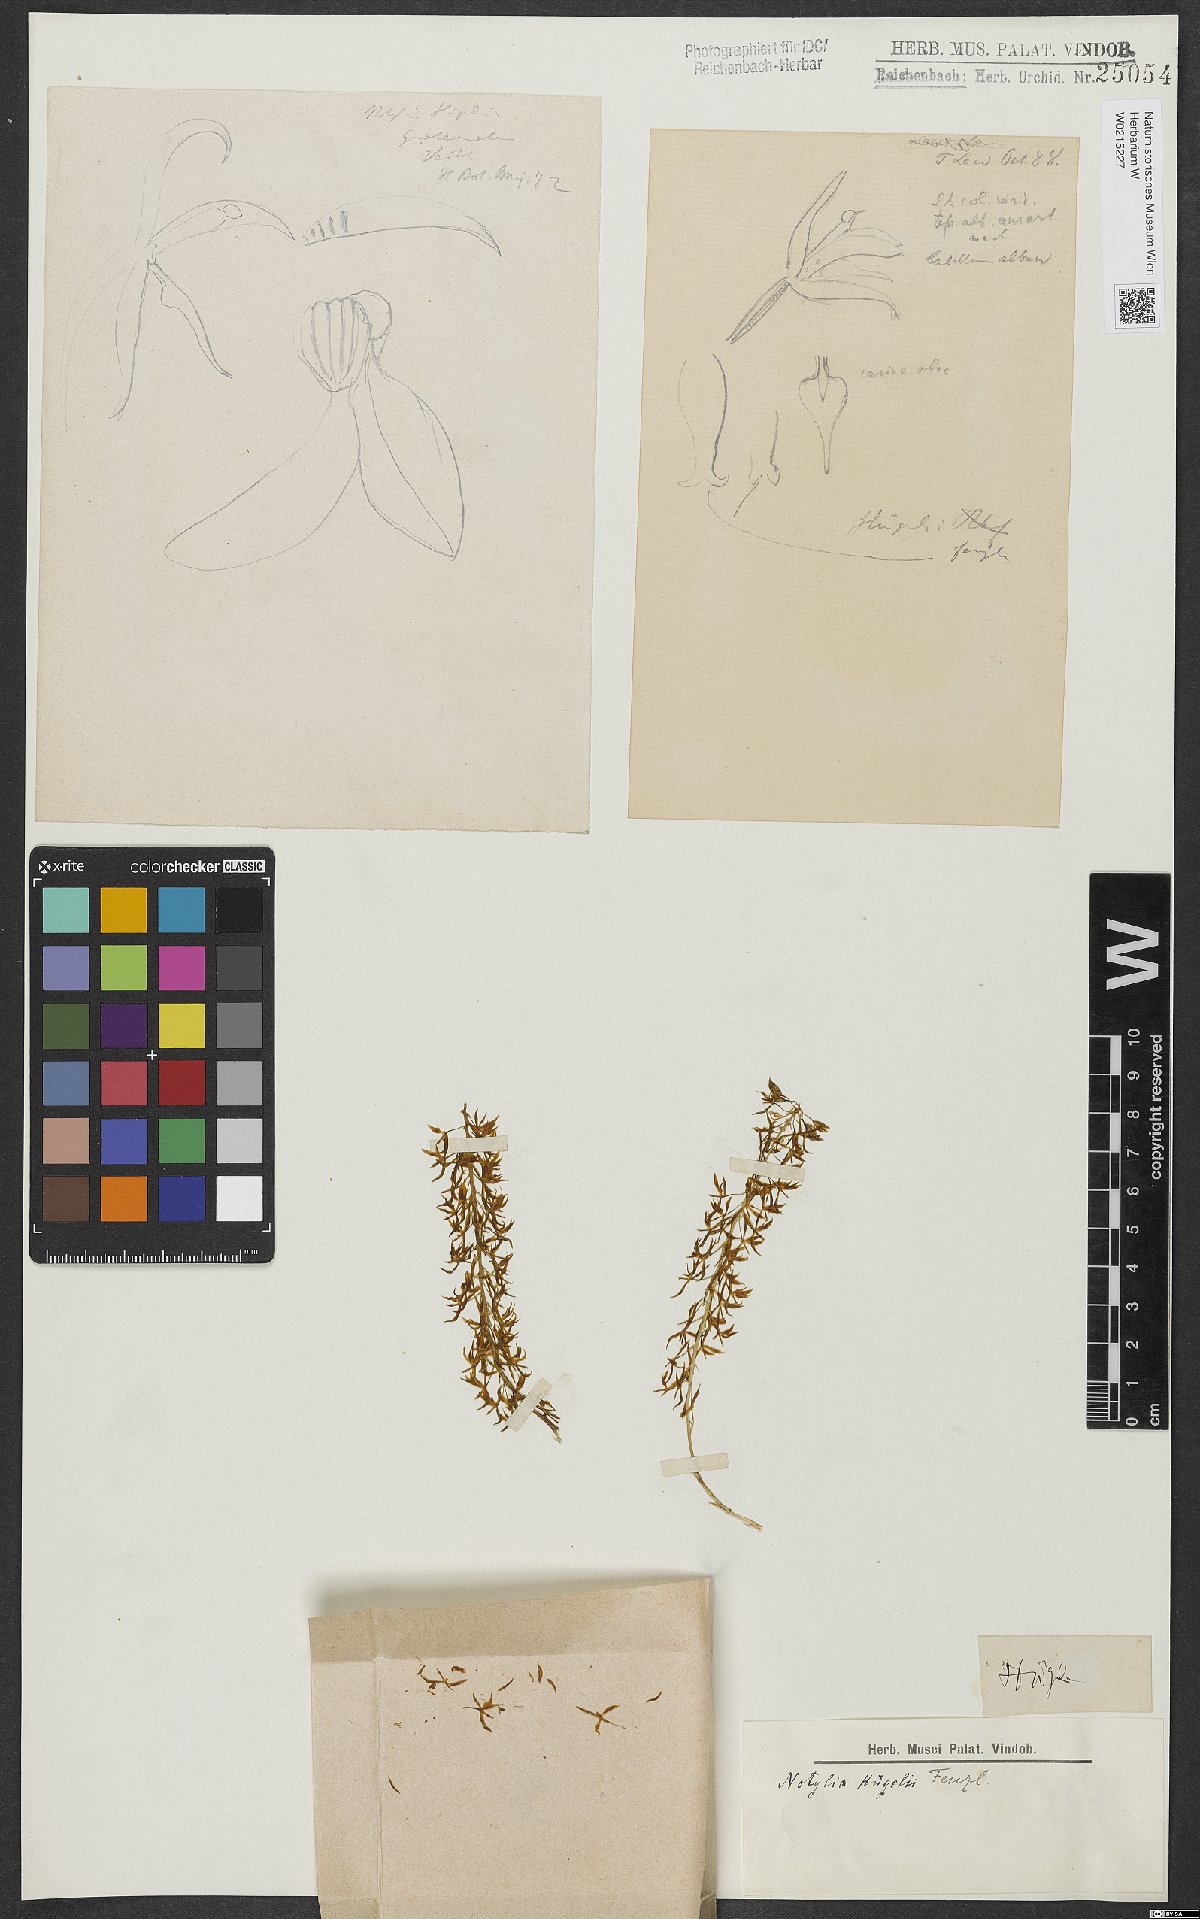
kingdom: Plantae
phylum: Tracheophyta
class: Liliopsida
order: Asparagales
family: Orchidaceae
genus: Notylia
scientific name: Notylia orbicularis
